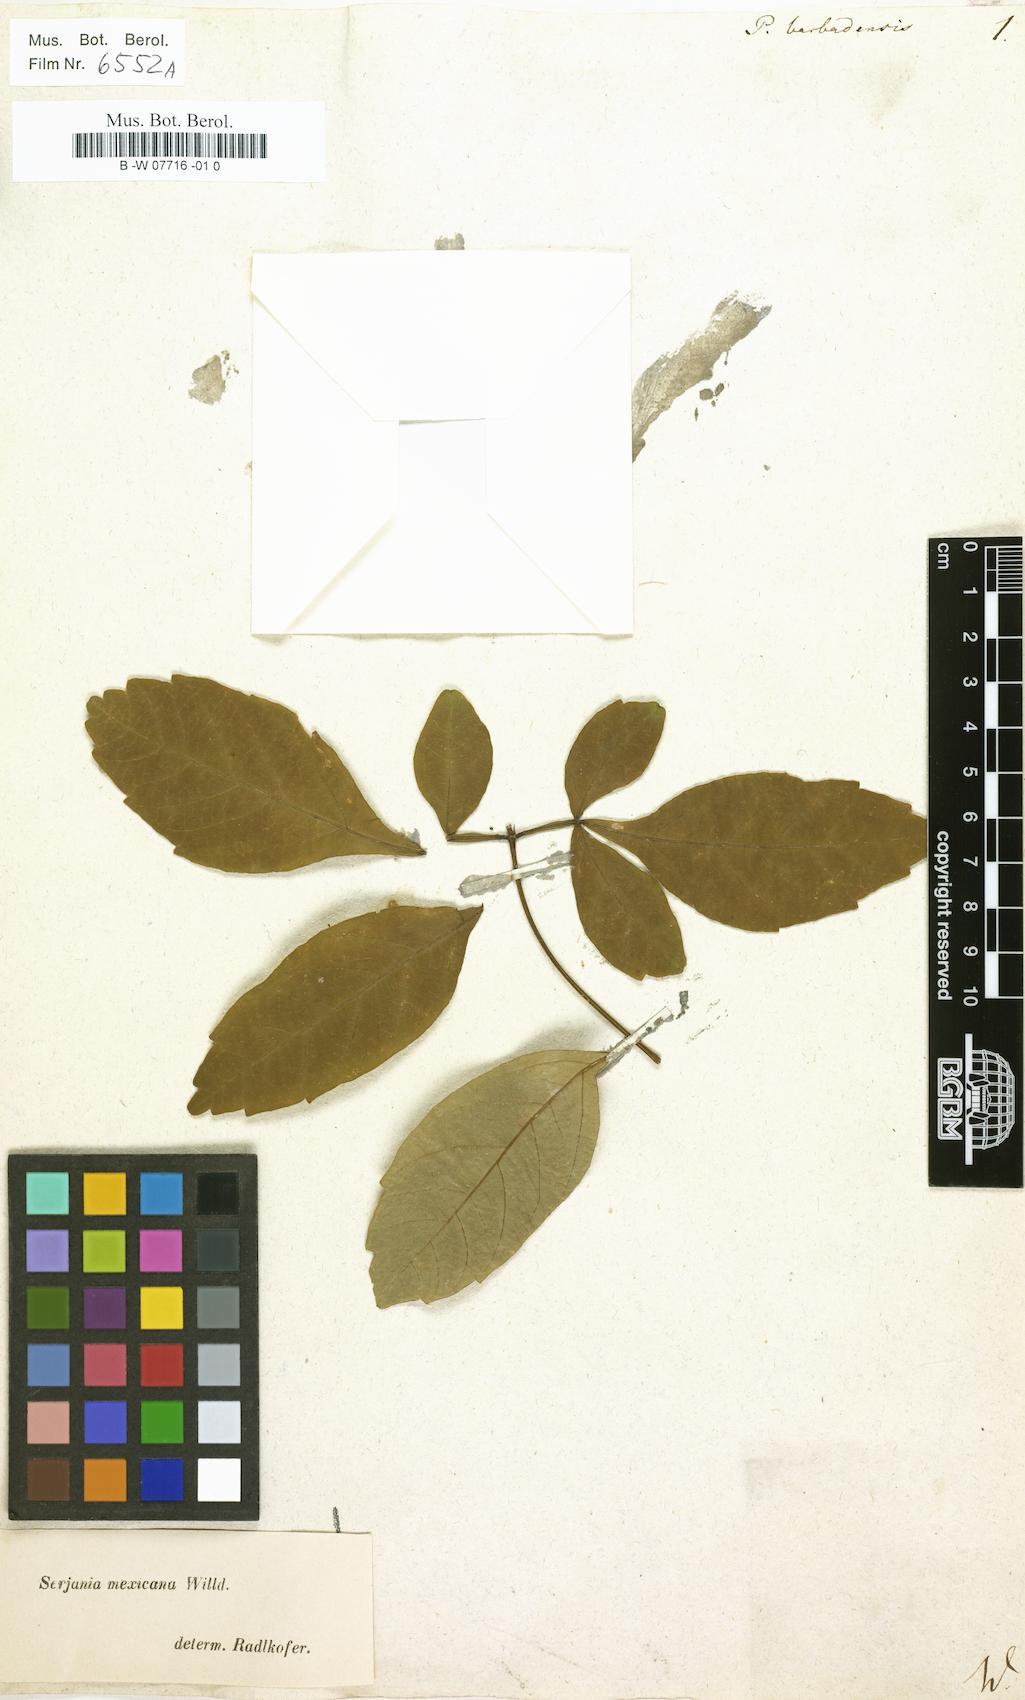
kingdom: Plantae
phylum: Tracheophyta
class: Magnoliopsida
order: Sapindales
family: Sapindaceae
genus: Paullinia
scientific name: Paullinia barbadensis
